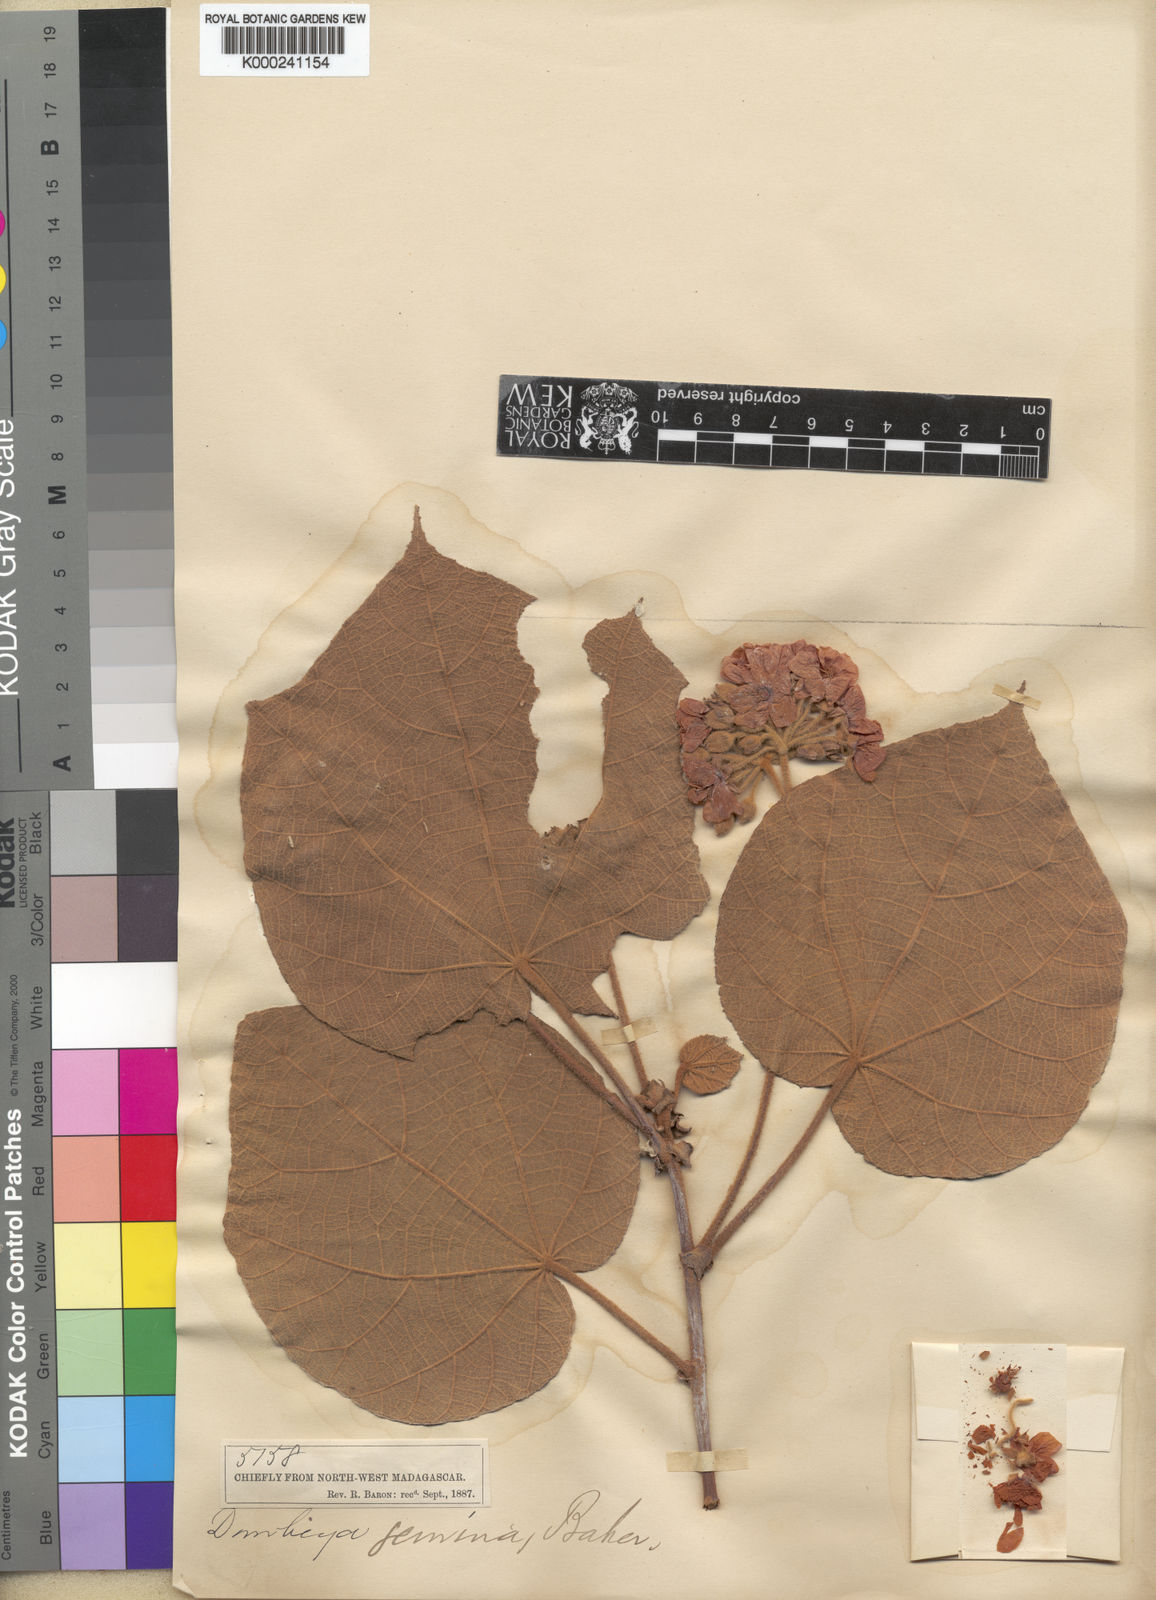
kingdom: Plantae
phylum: Tracheophyta
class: Magnoliopsida
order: Malvales
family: Malvaceae
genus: Dombeya
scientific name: Dombeya biumbellata
